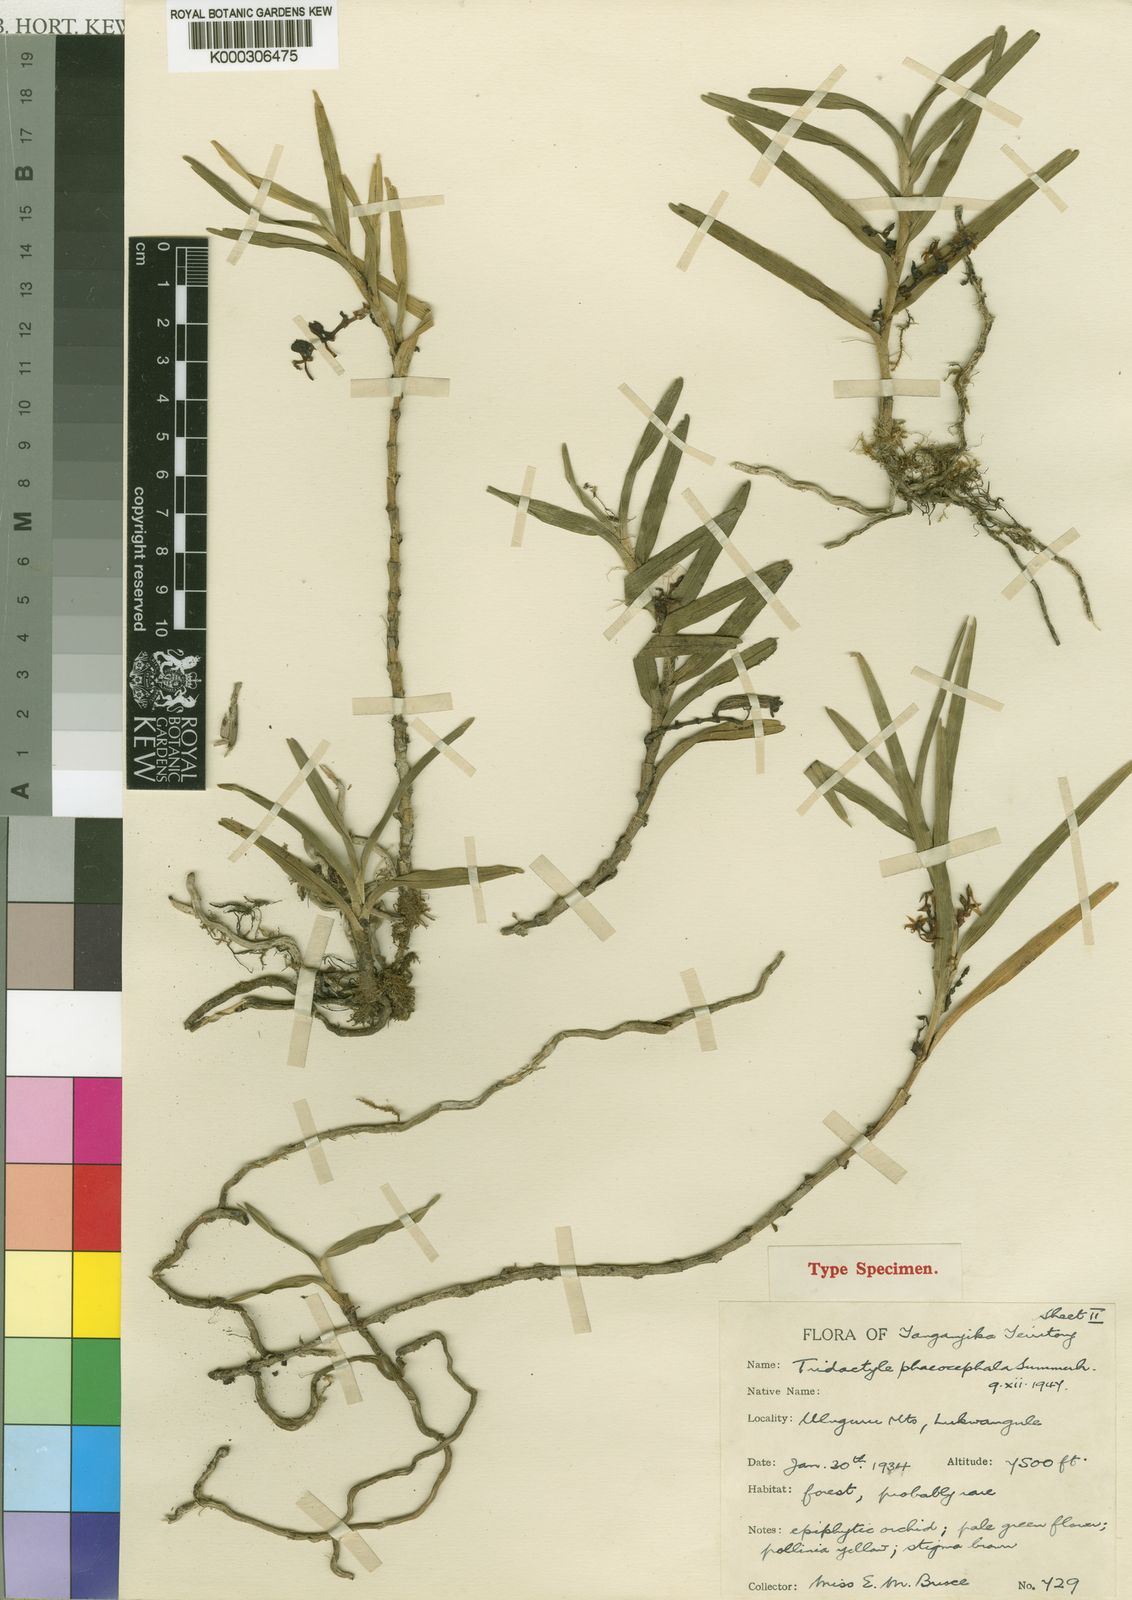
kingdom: Plantae
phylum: Tracheophyta
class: Liliopsida
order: Asparagales
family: Orchidaceae
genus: Tridactyle
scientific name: Tridactyle phaeocephala
